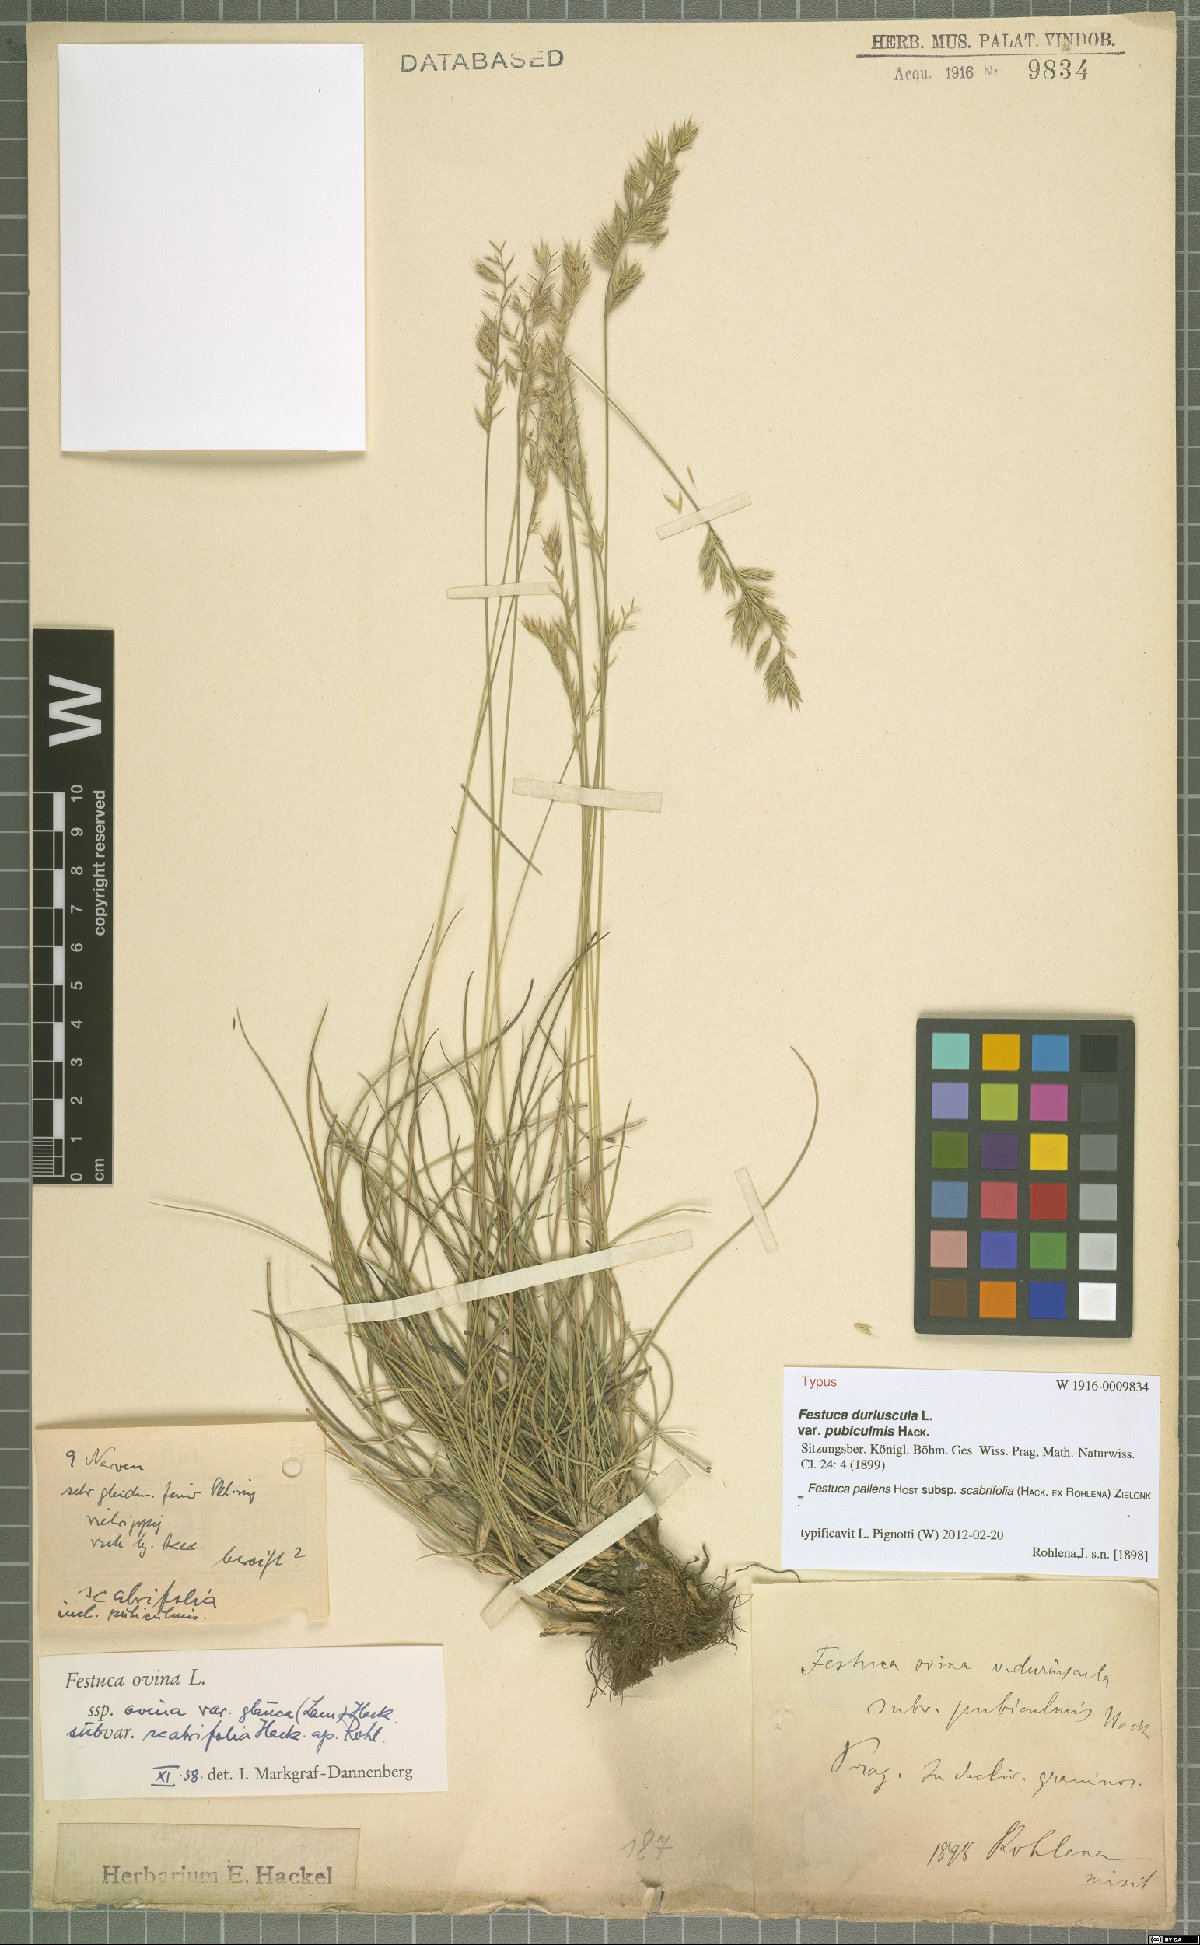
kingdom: Plantae
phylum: Tracheophyta
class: Liliopsida
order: Poales
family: Poaceae
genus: Festuca
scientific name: Festuca ovina
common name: Sheep fescue
